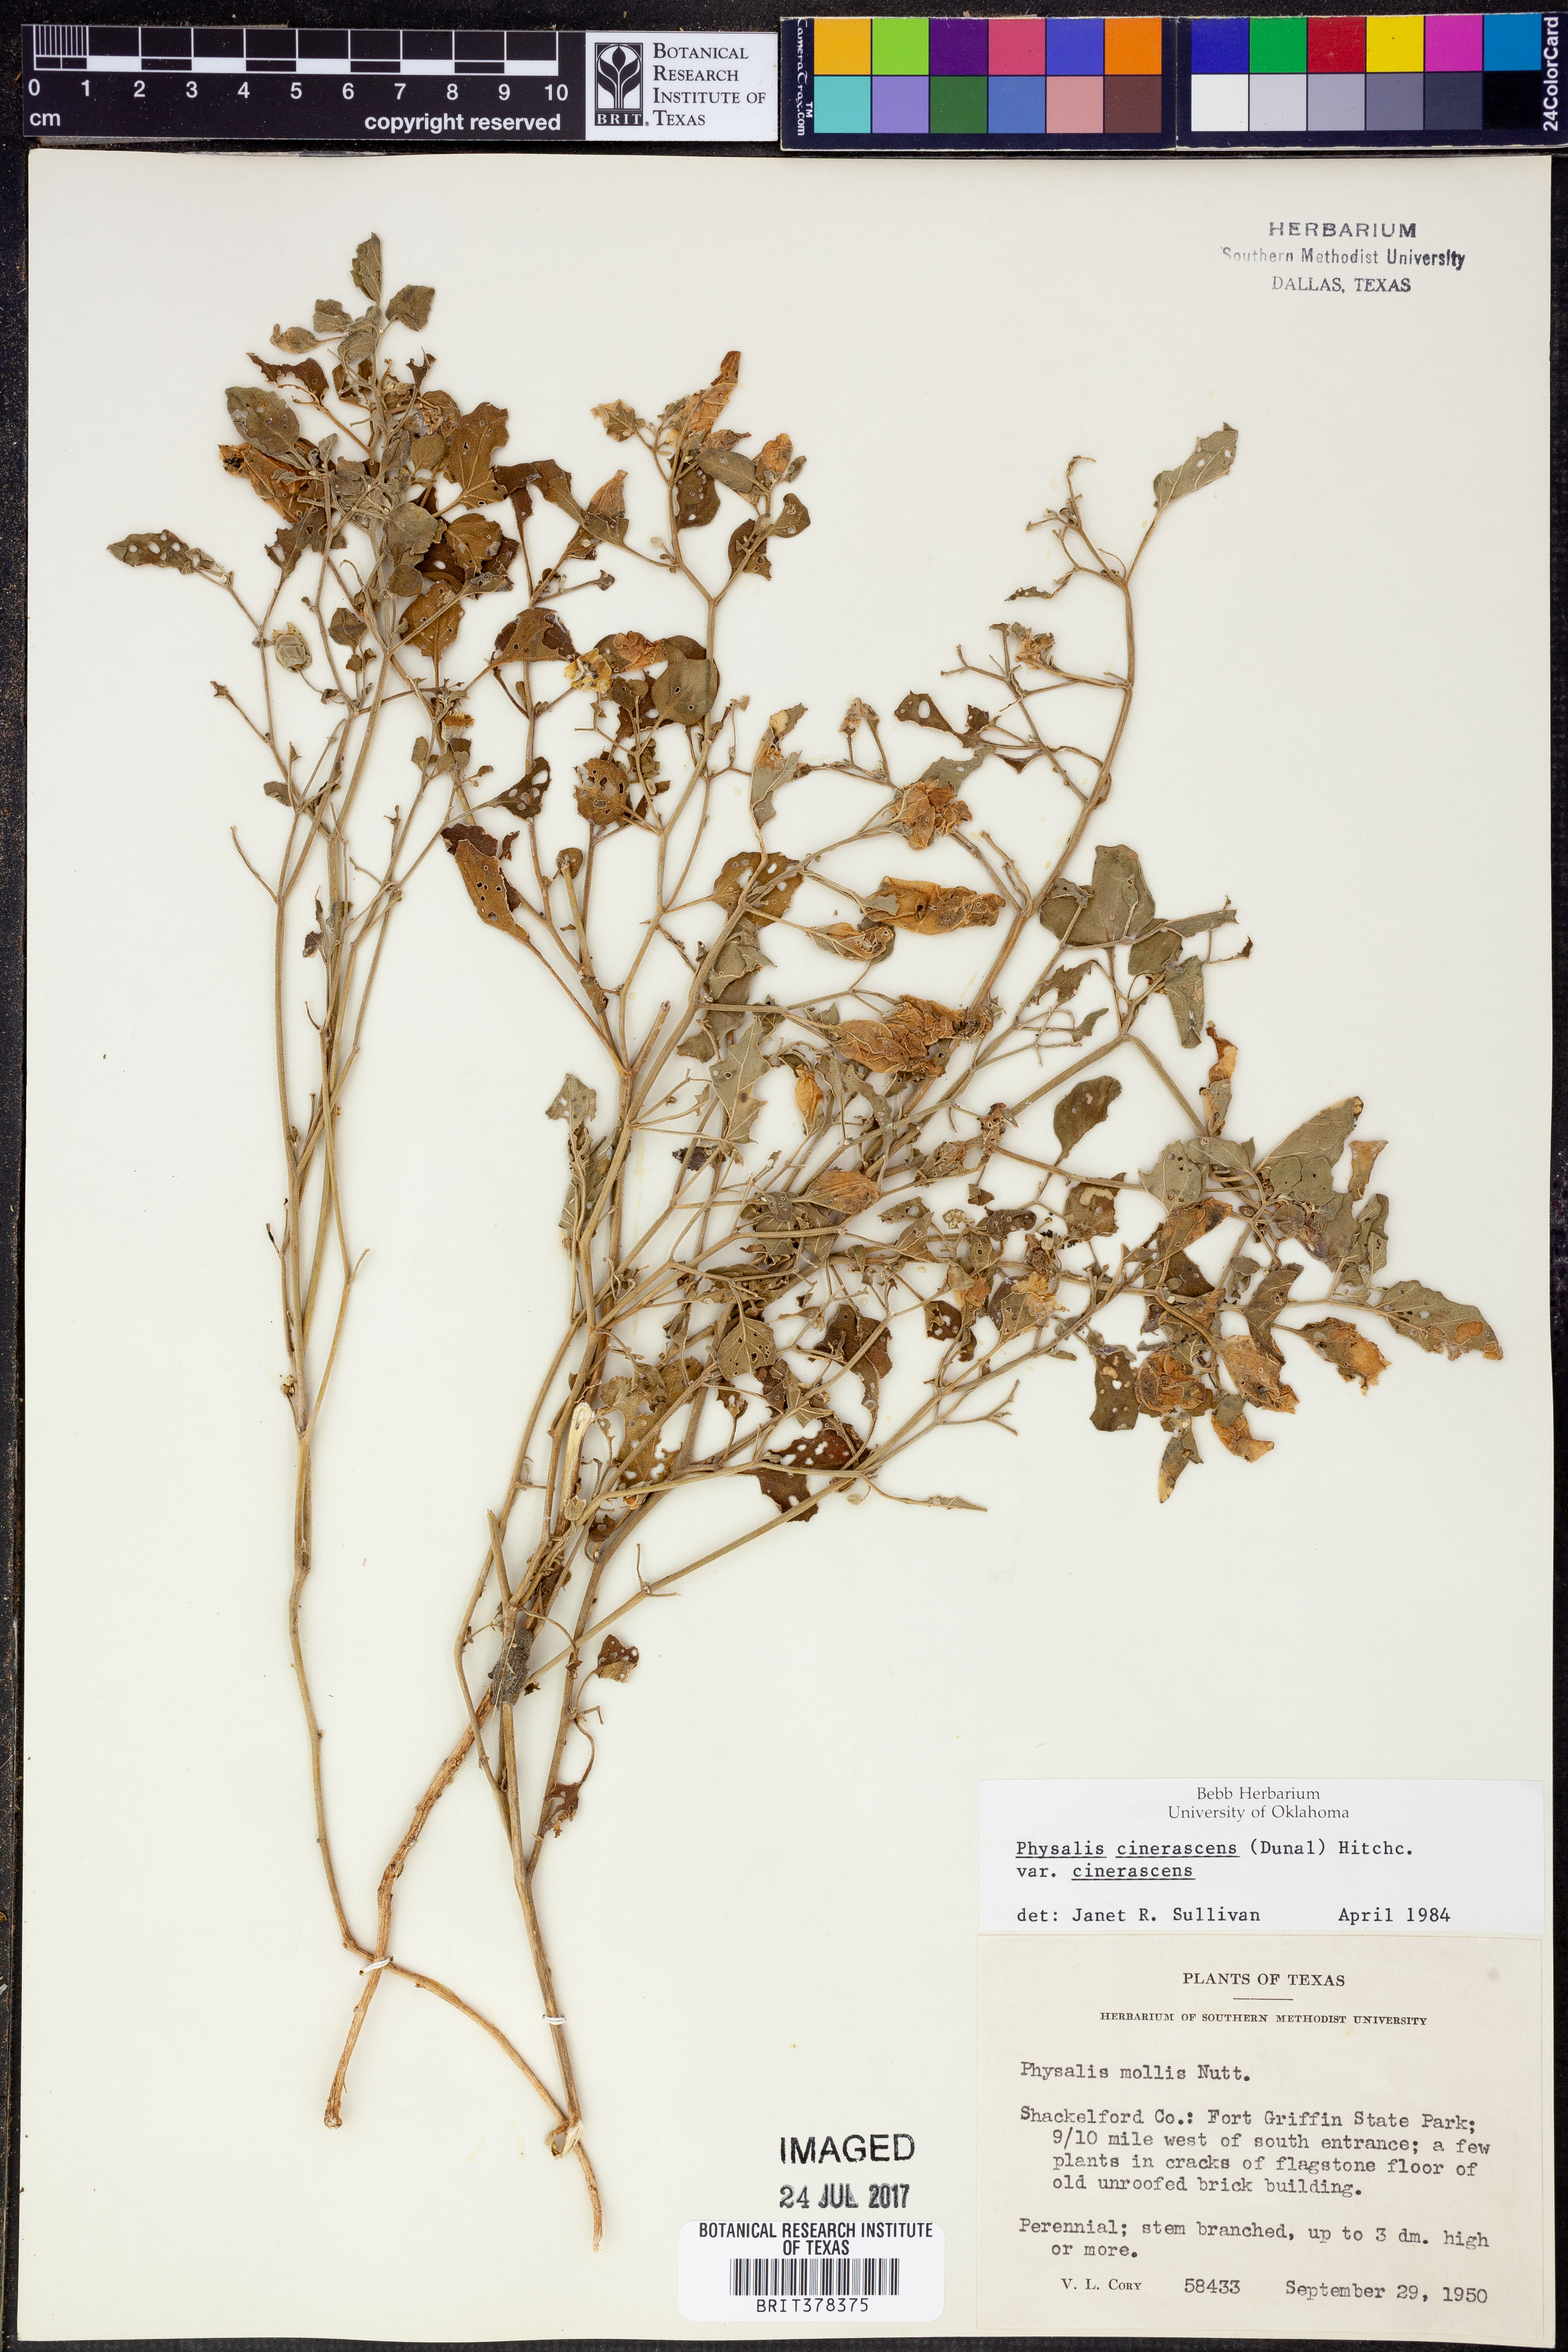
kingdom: Plantae
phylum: Tracheophyta
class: Magnoliopsida
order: Solanales
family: Solanaceae
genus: Physalis
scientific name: Physalis cinerascens
